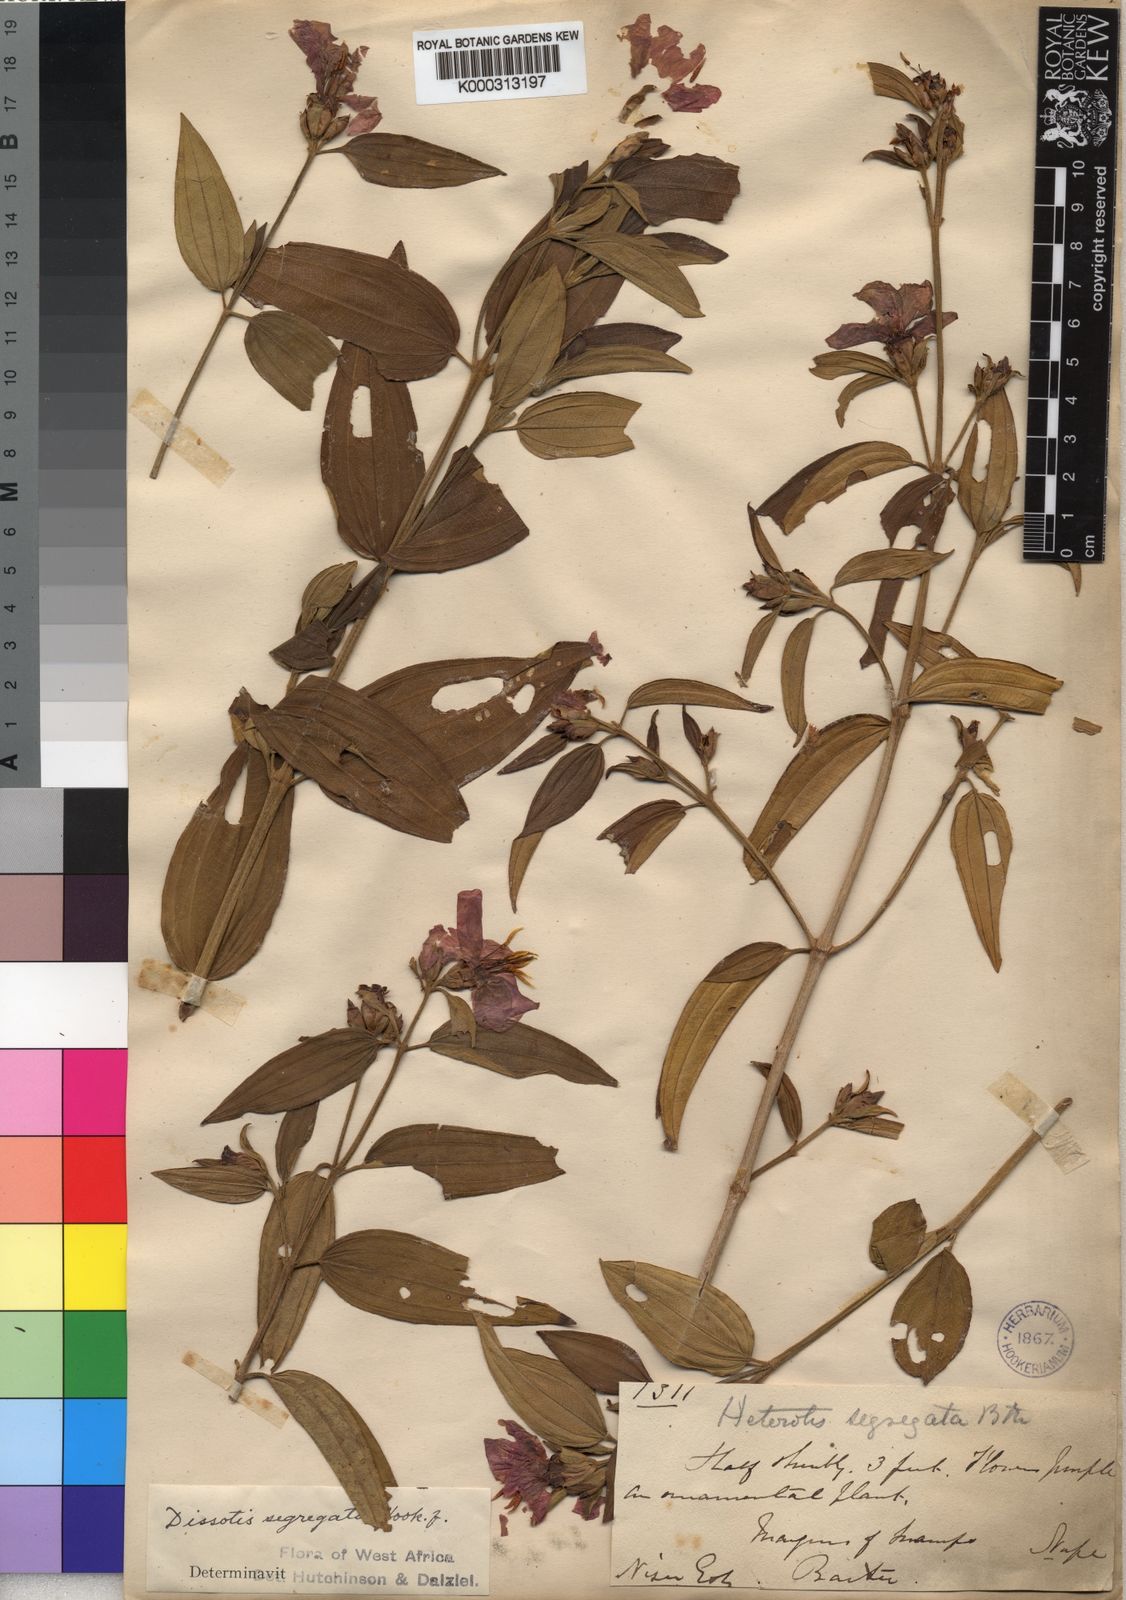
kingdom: Plantae
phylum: Tracheophyta
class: Magnoliopsida
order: Myrtales
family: Melastomataceae
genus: Melastomastrum
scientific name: Melastomastrum segregatum
